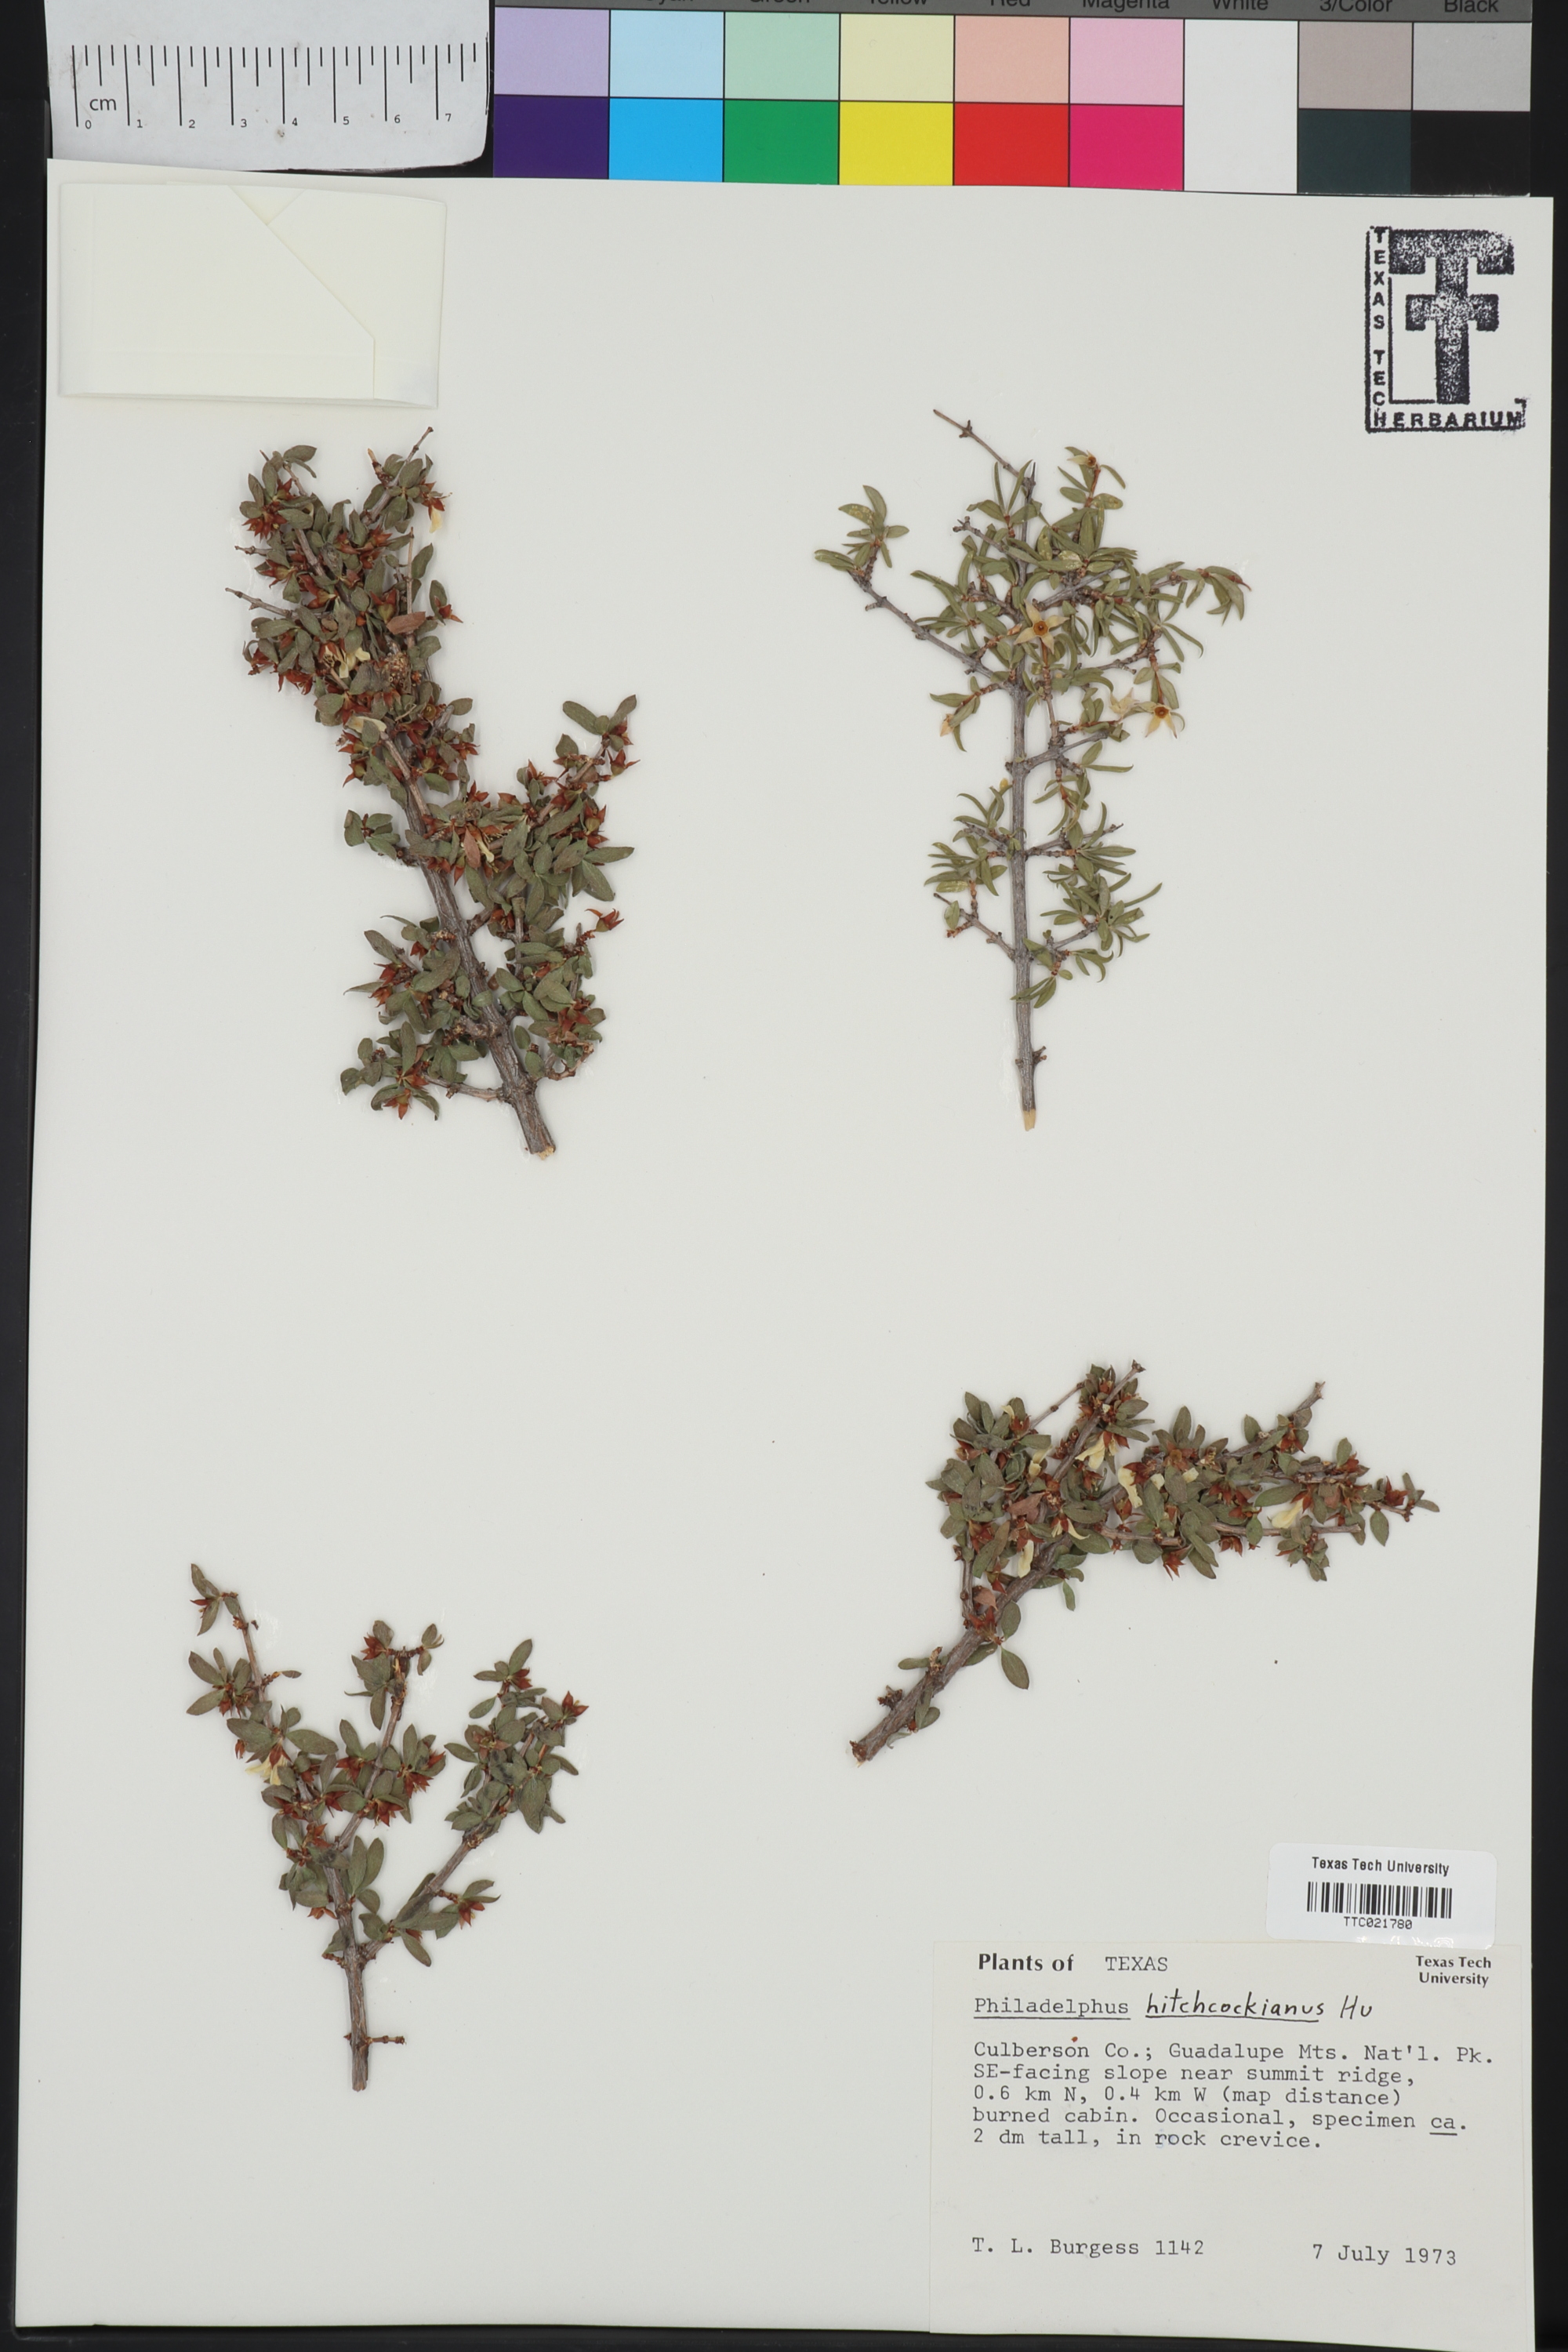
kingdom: Plantae
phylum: Tracheophyta
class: Magnoliopsida
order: Cornales
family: Hydrangeaceae
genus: Philadelphus
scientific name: Philadelphus mearnsii
